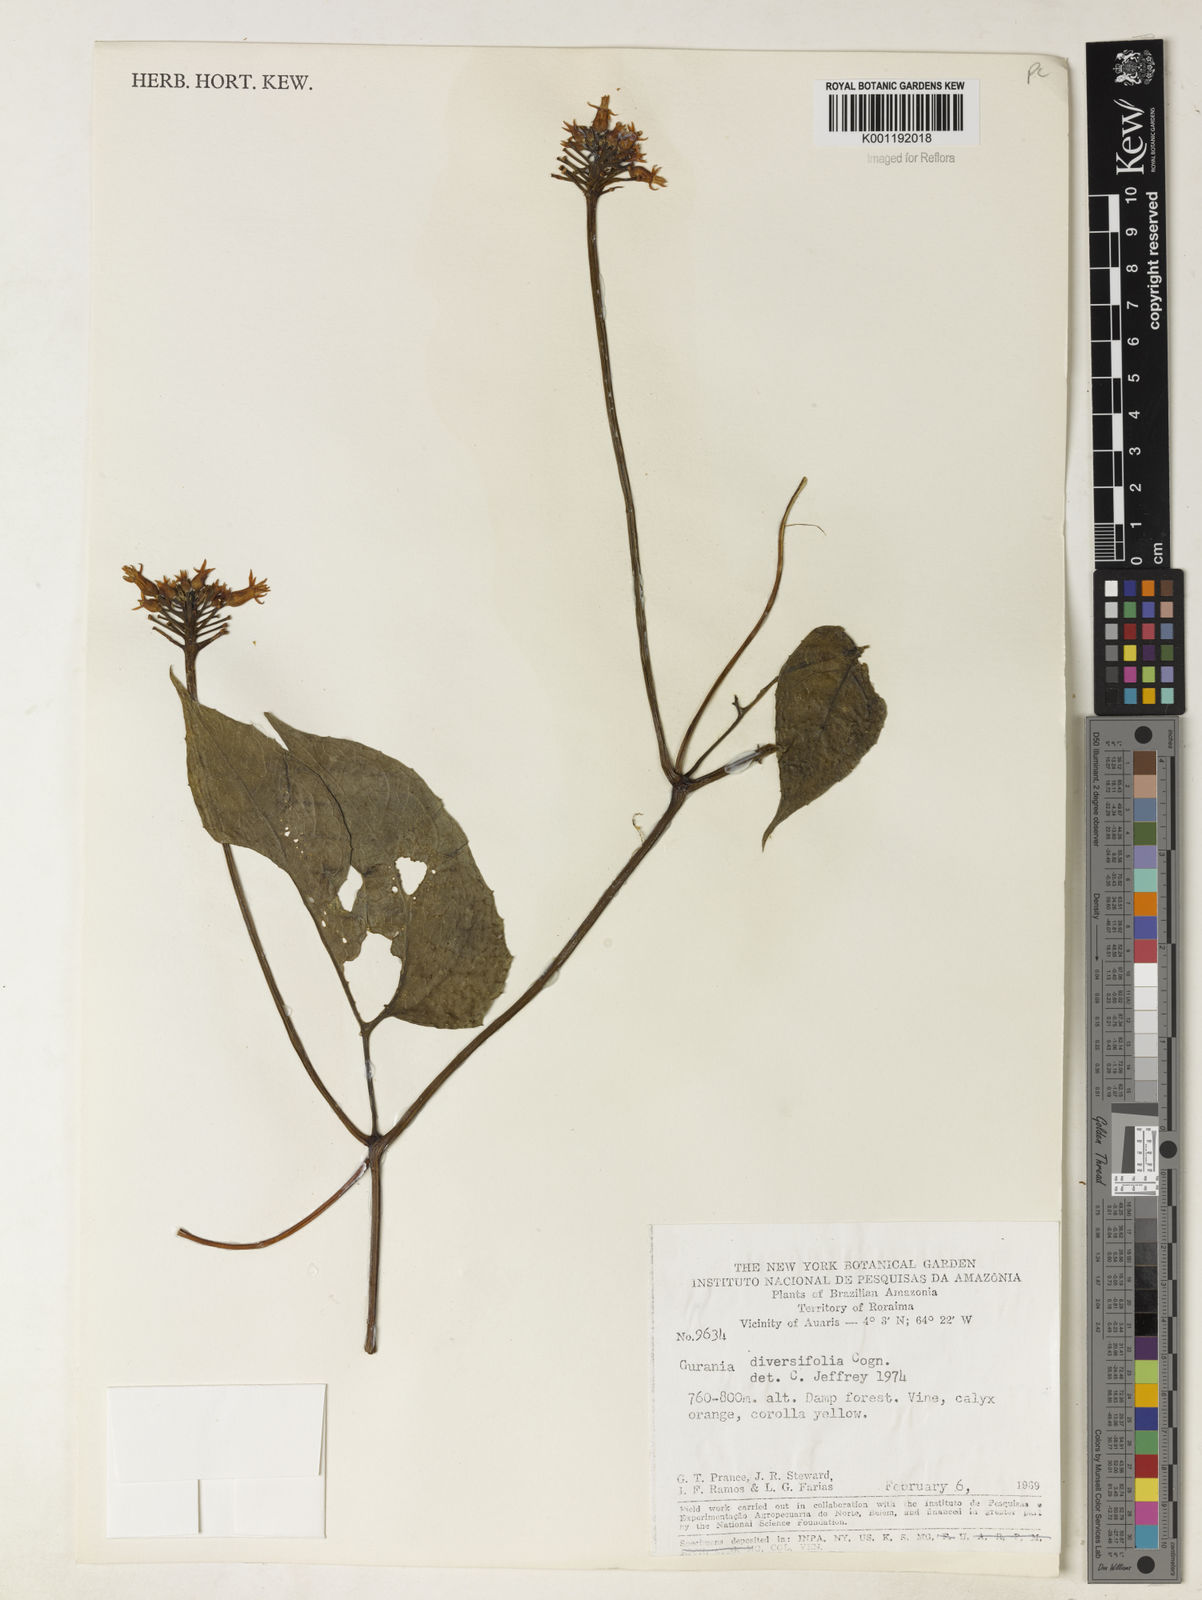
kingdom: Plantae
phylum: Tracheophyta
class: Magnoliopsida
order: Cucurbitales
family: Cucurbitaceae
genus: Gurania
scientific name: Gurania acuminata
